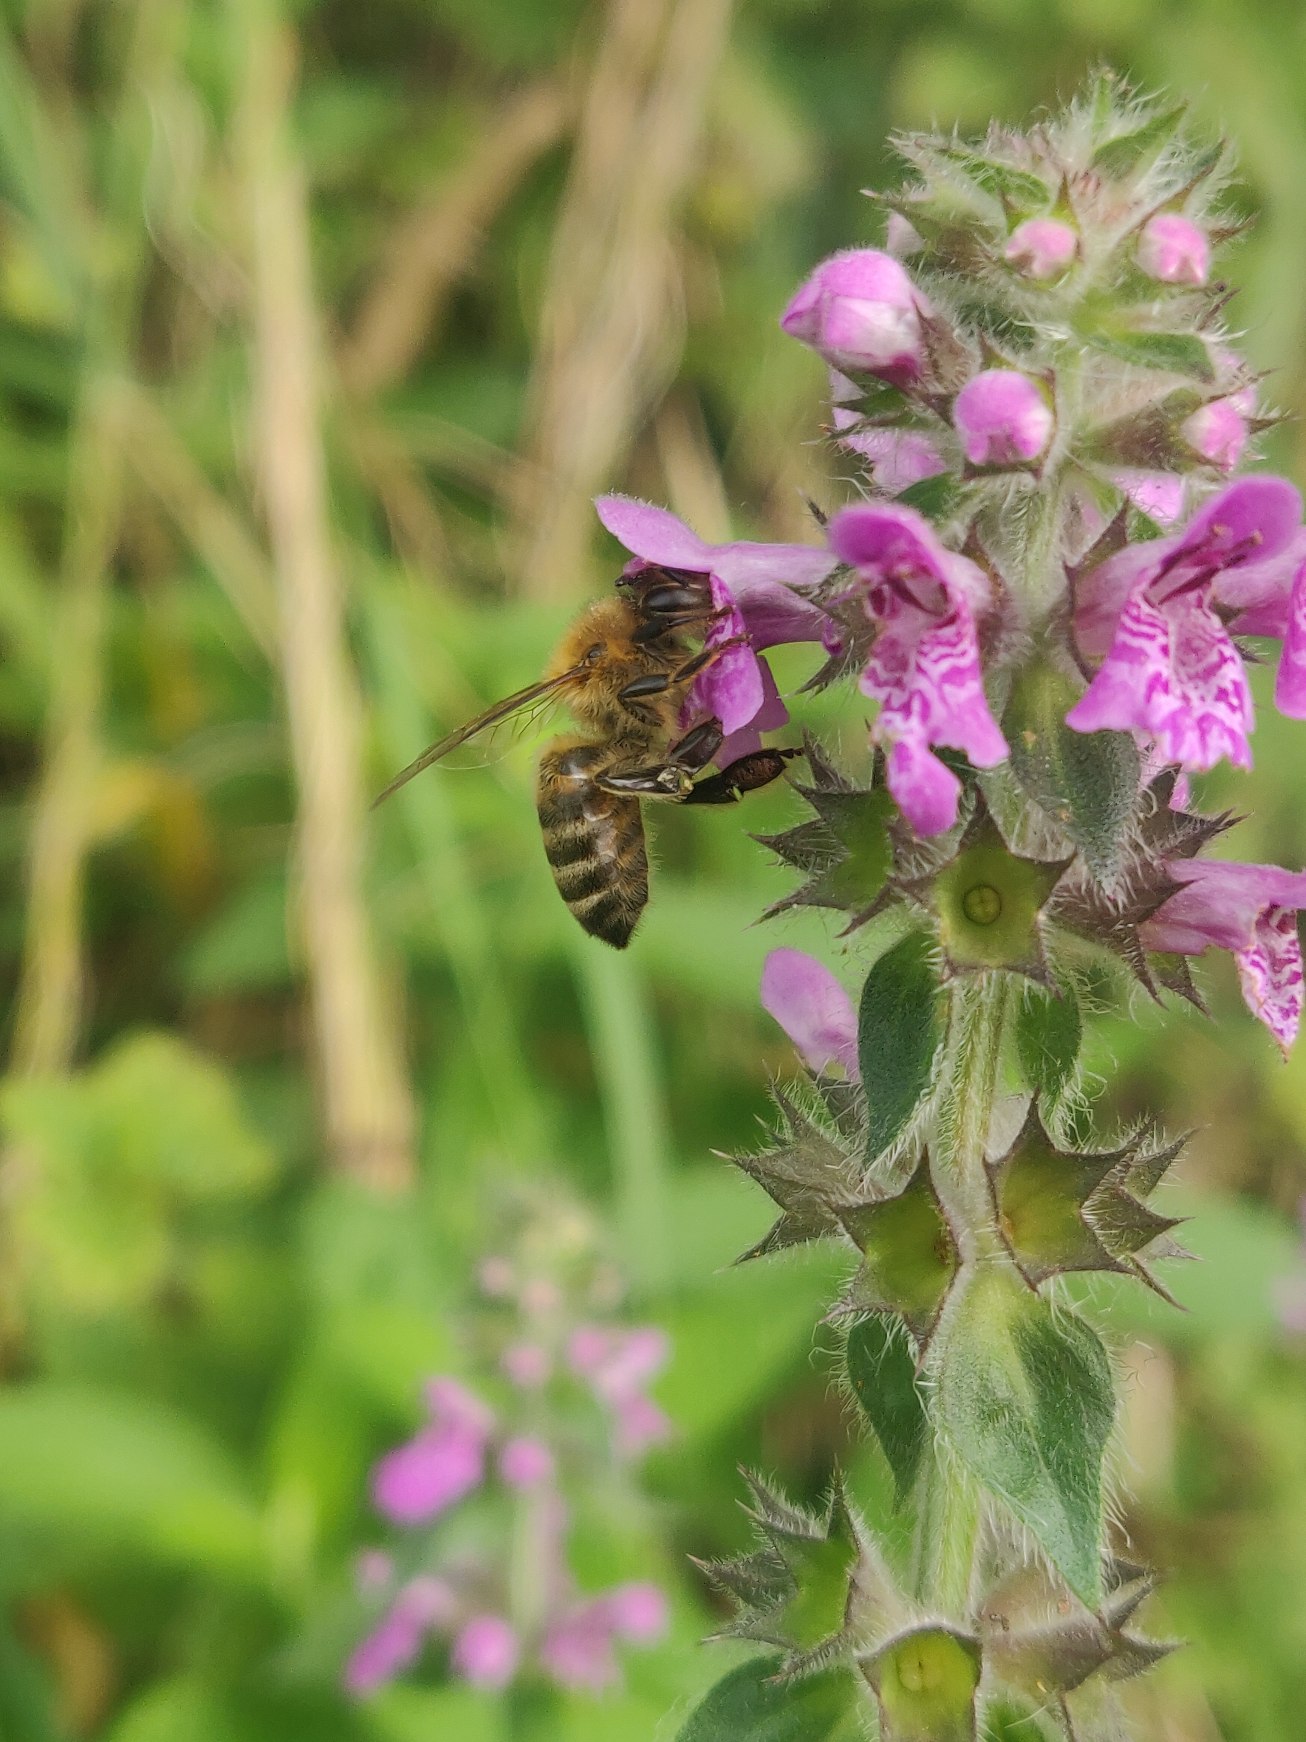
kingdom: Plantae
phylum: Tracheophyta
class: Magnoliopsida
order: Lamiales
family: Lamiaceae
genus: Stachys
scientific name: Stachys palustris
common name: Kær-galtetand
